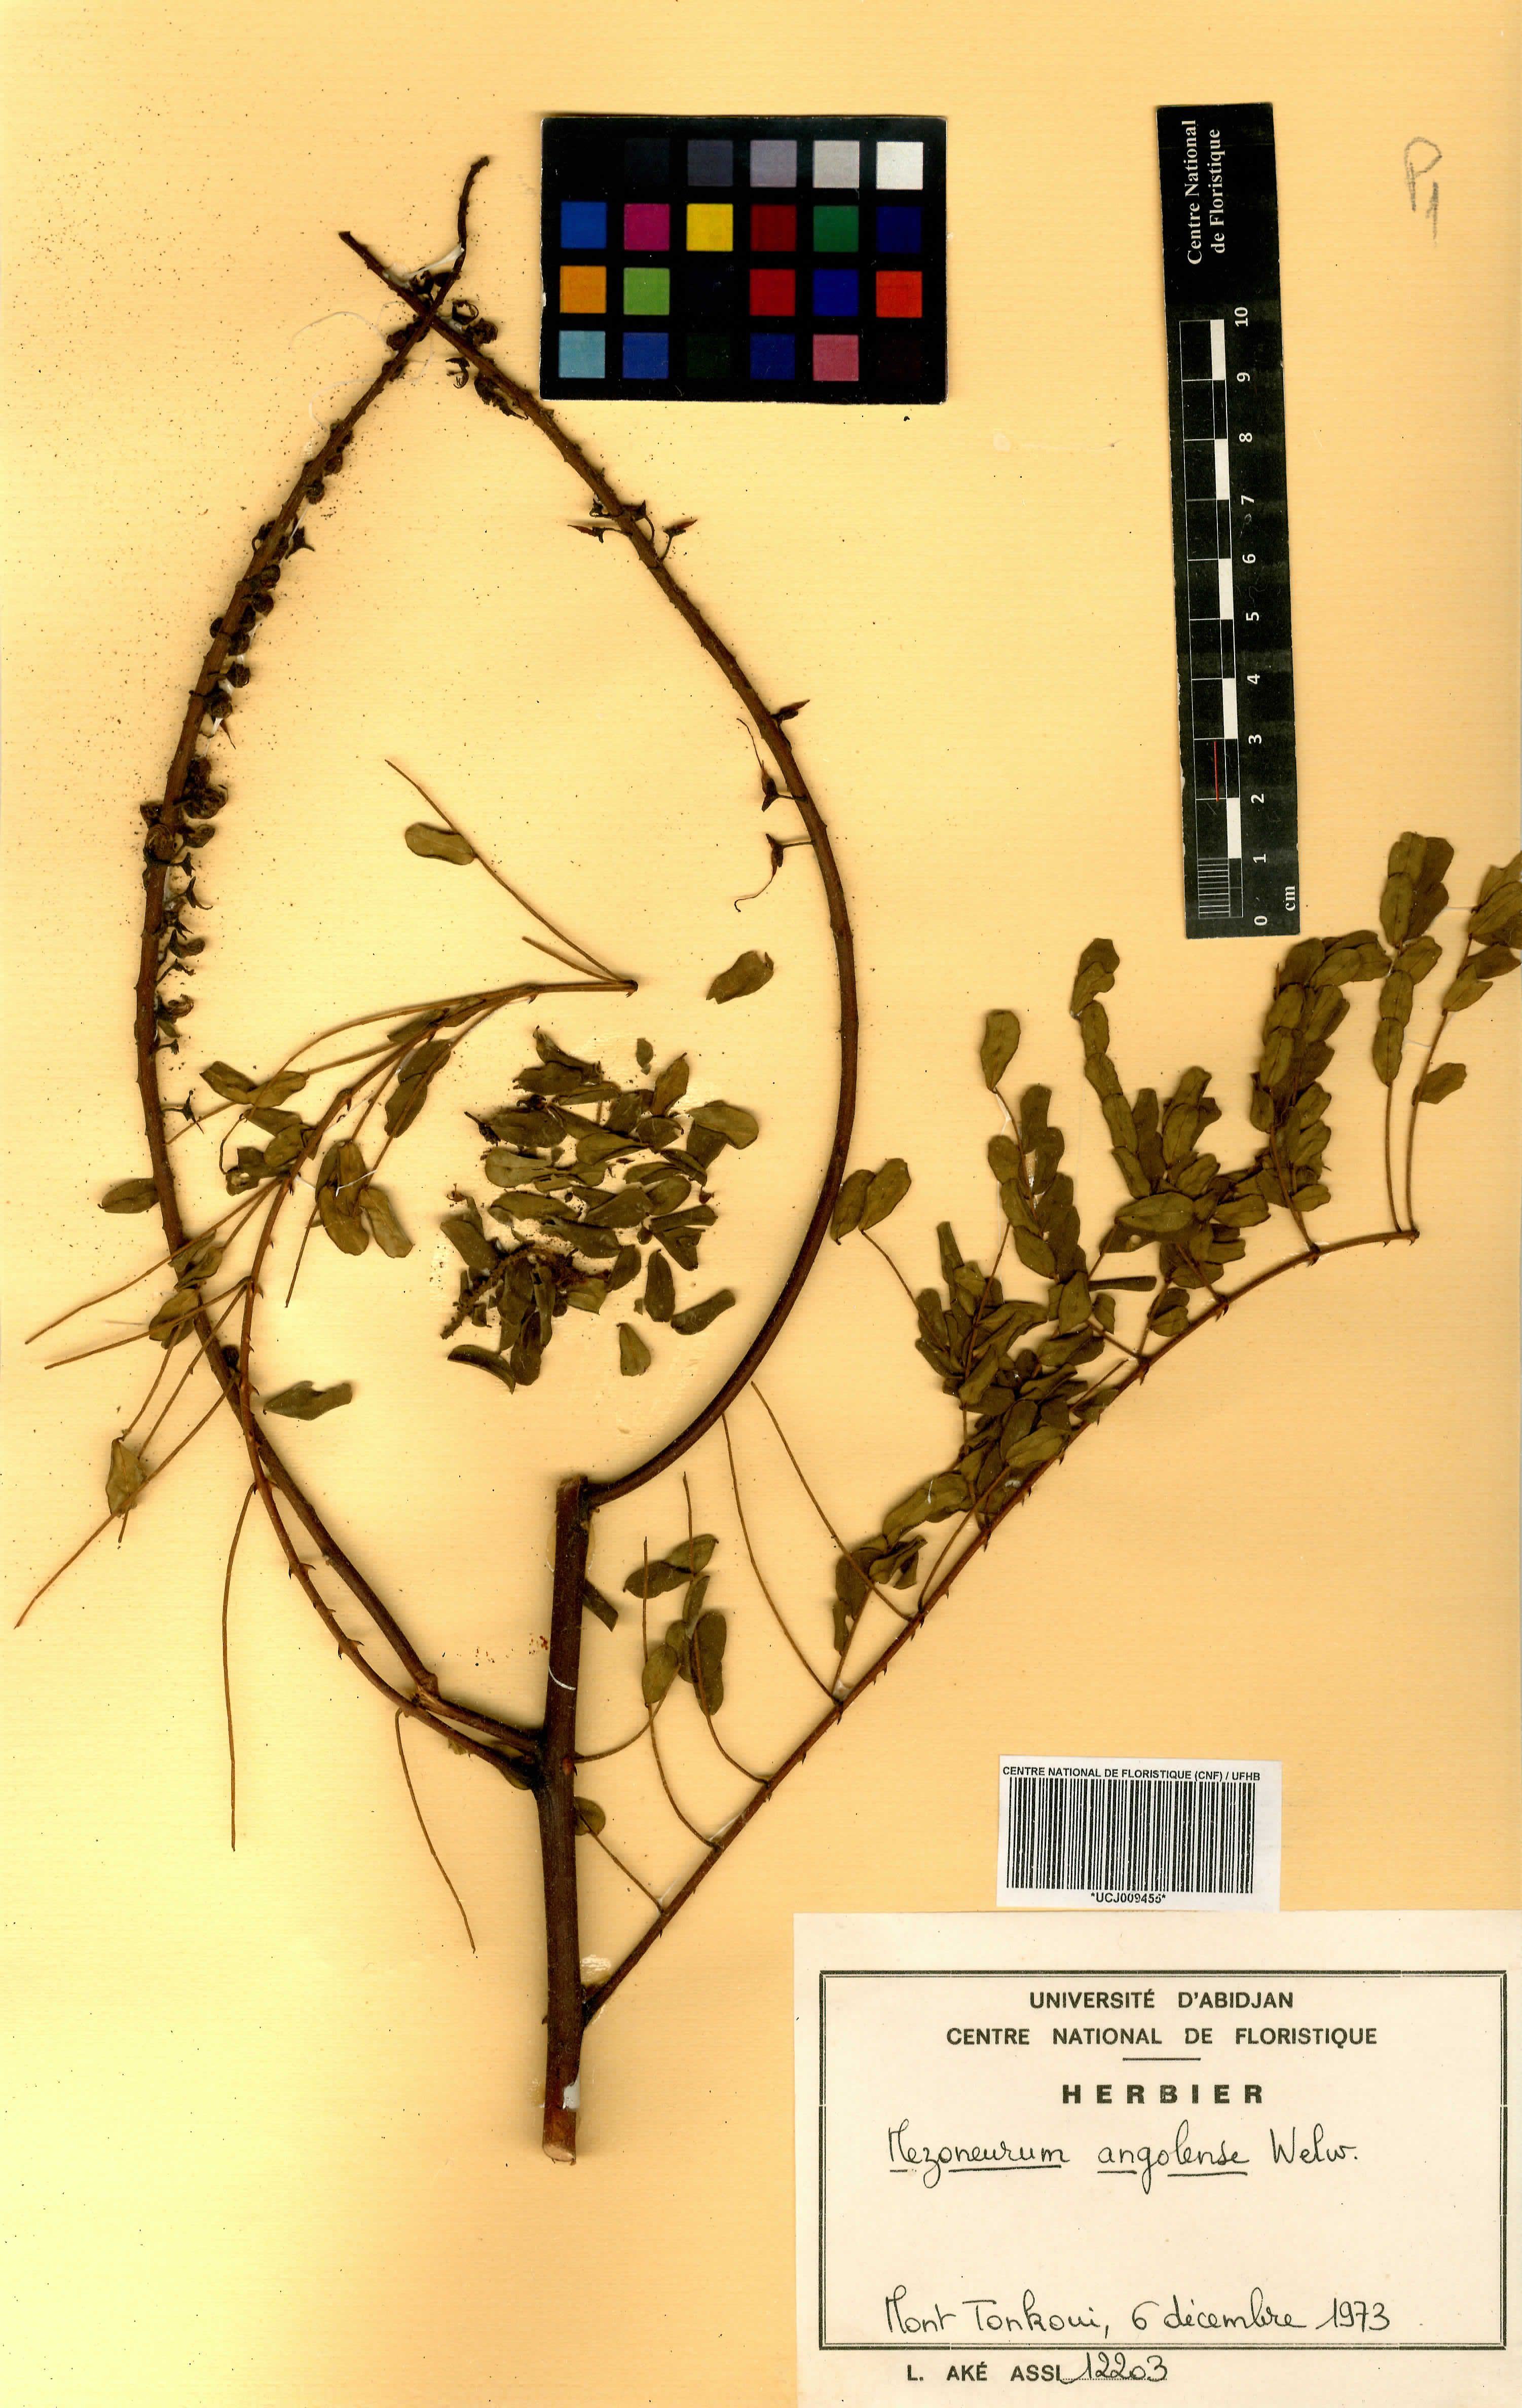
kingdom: Plantae
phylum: Tracheophyta
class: Magnoliopsida
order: Fabales
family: Fabaceae
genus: Mezoneuron
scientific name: Mezoneuron angolense
